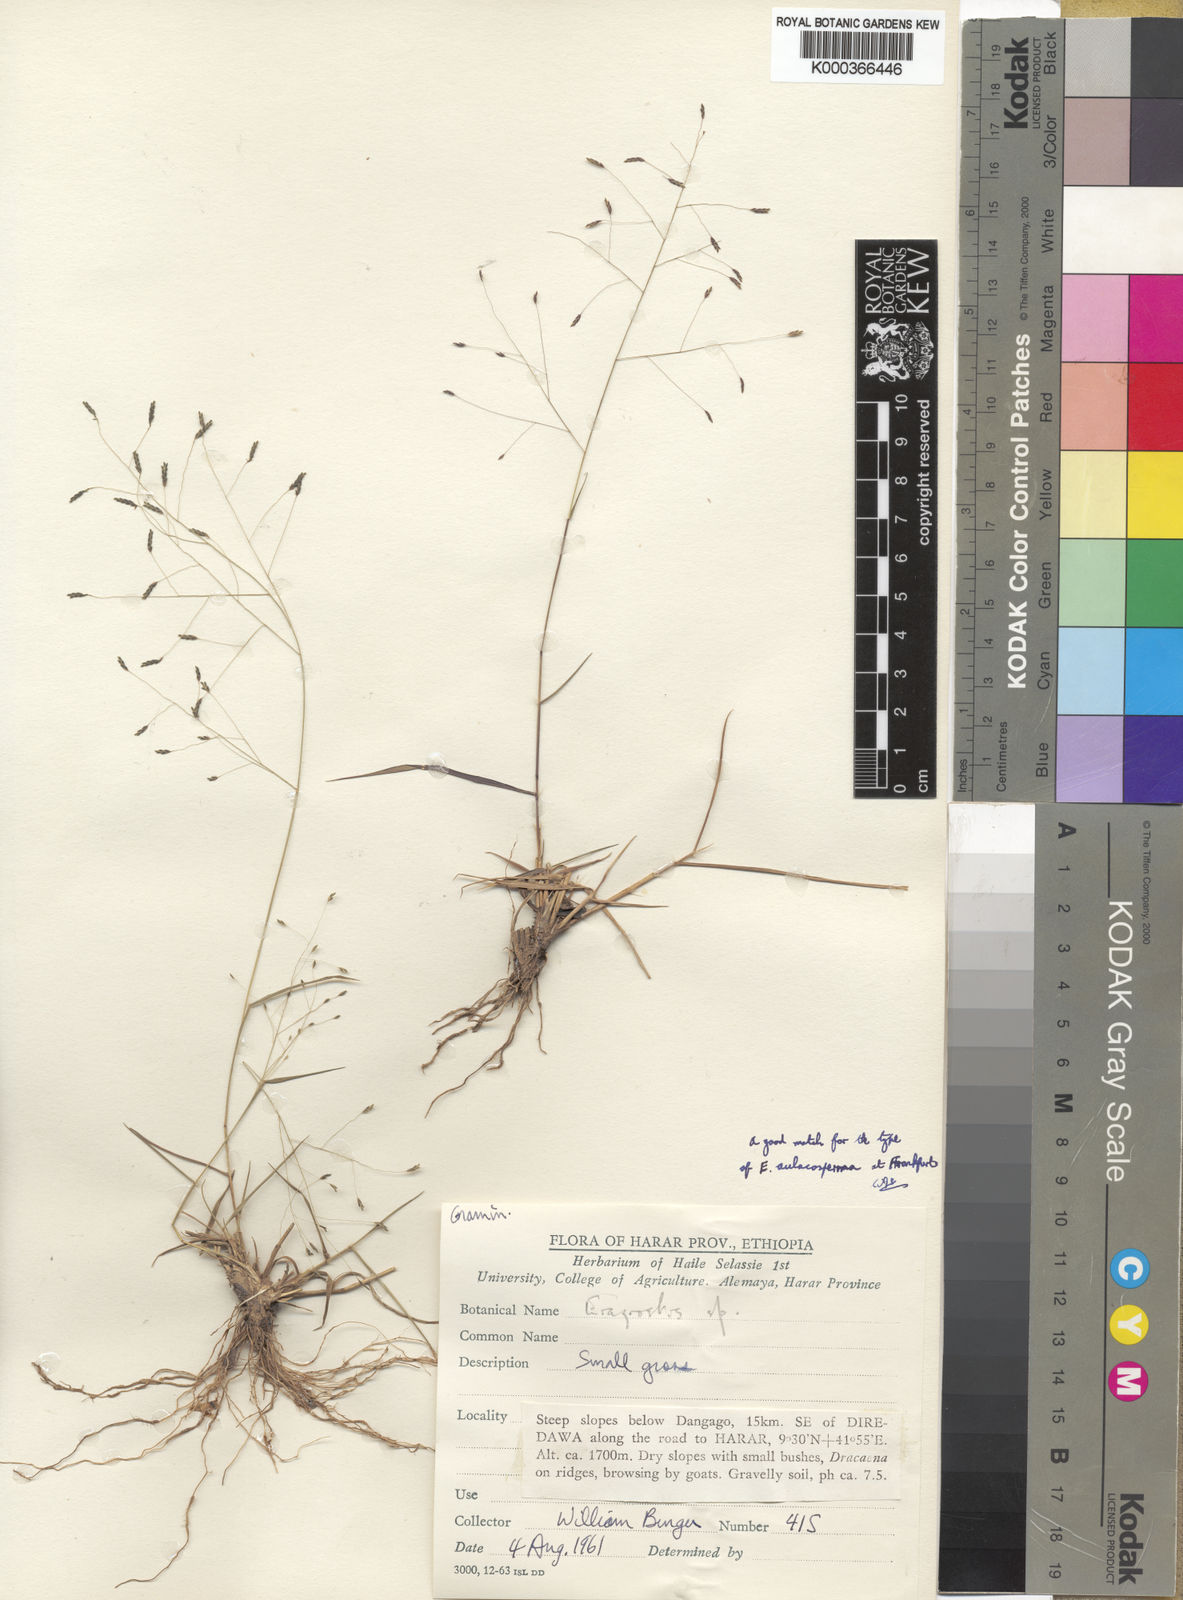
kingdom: Plantae
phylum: Tracheophyta
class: Liliopsida
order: Poales
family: Poaceae
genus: Eragrostis
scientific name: Eragrostis papposa
